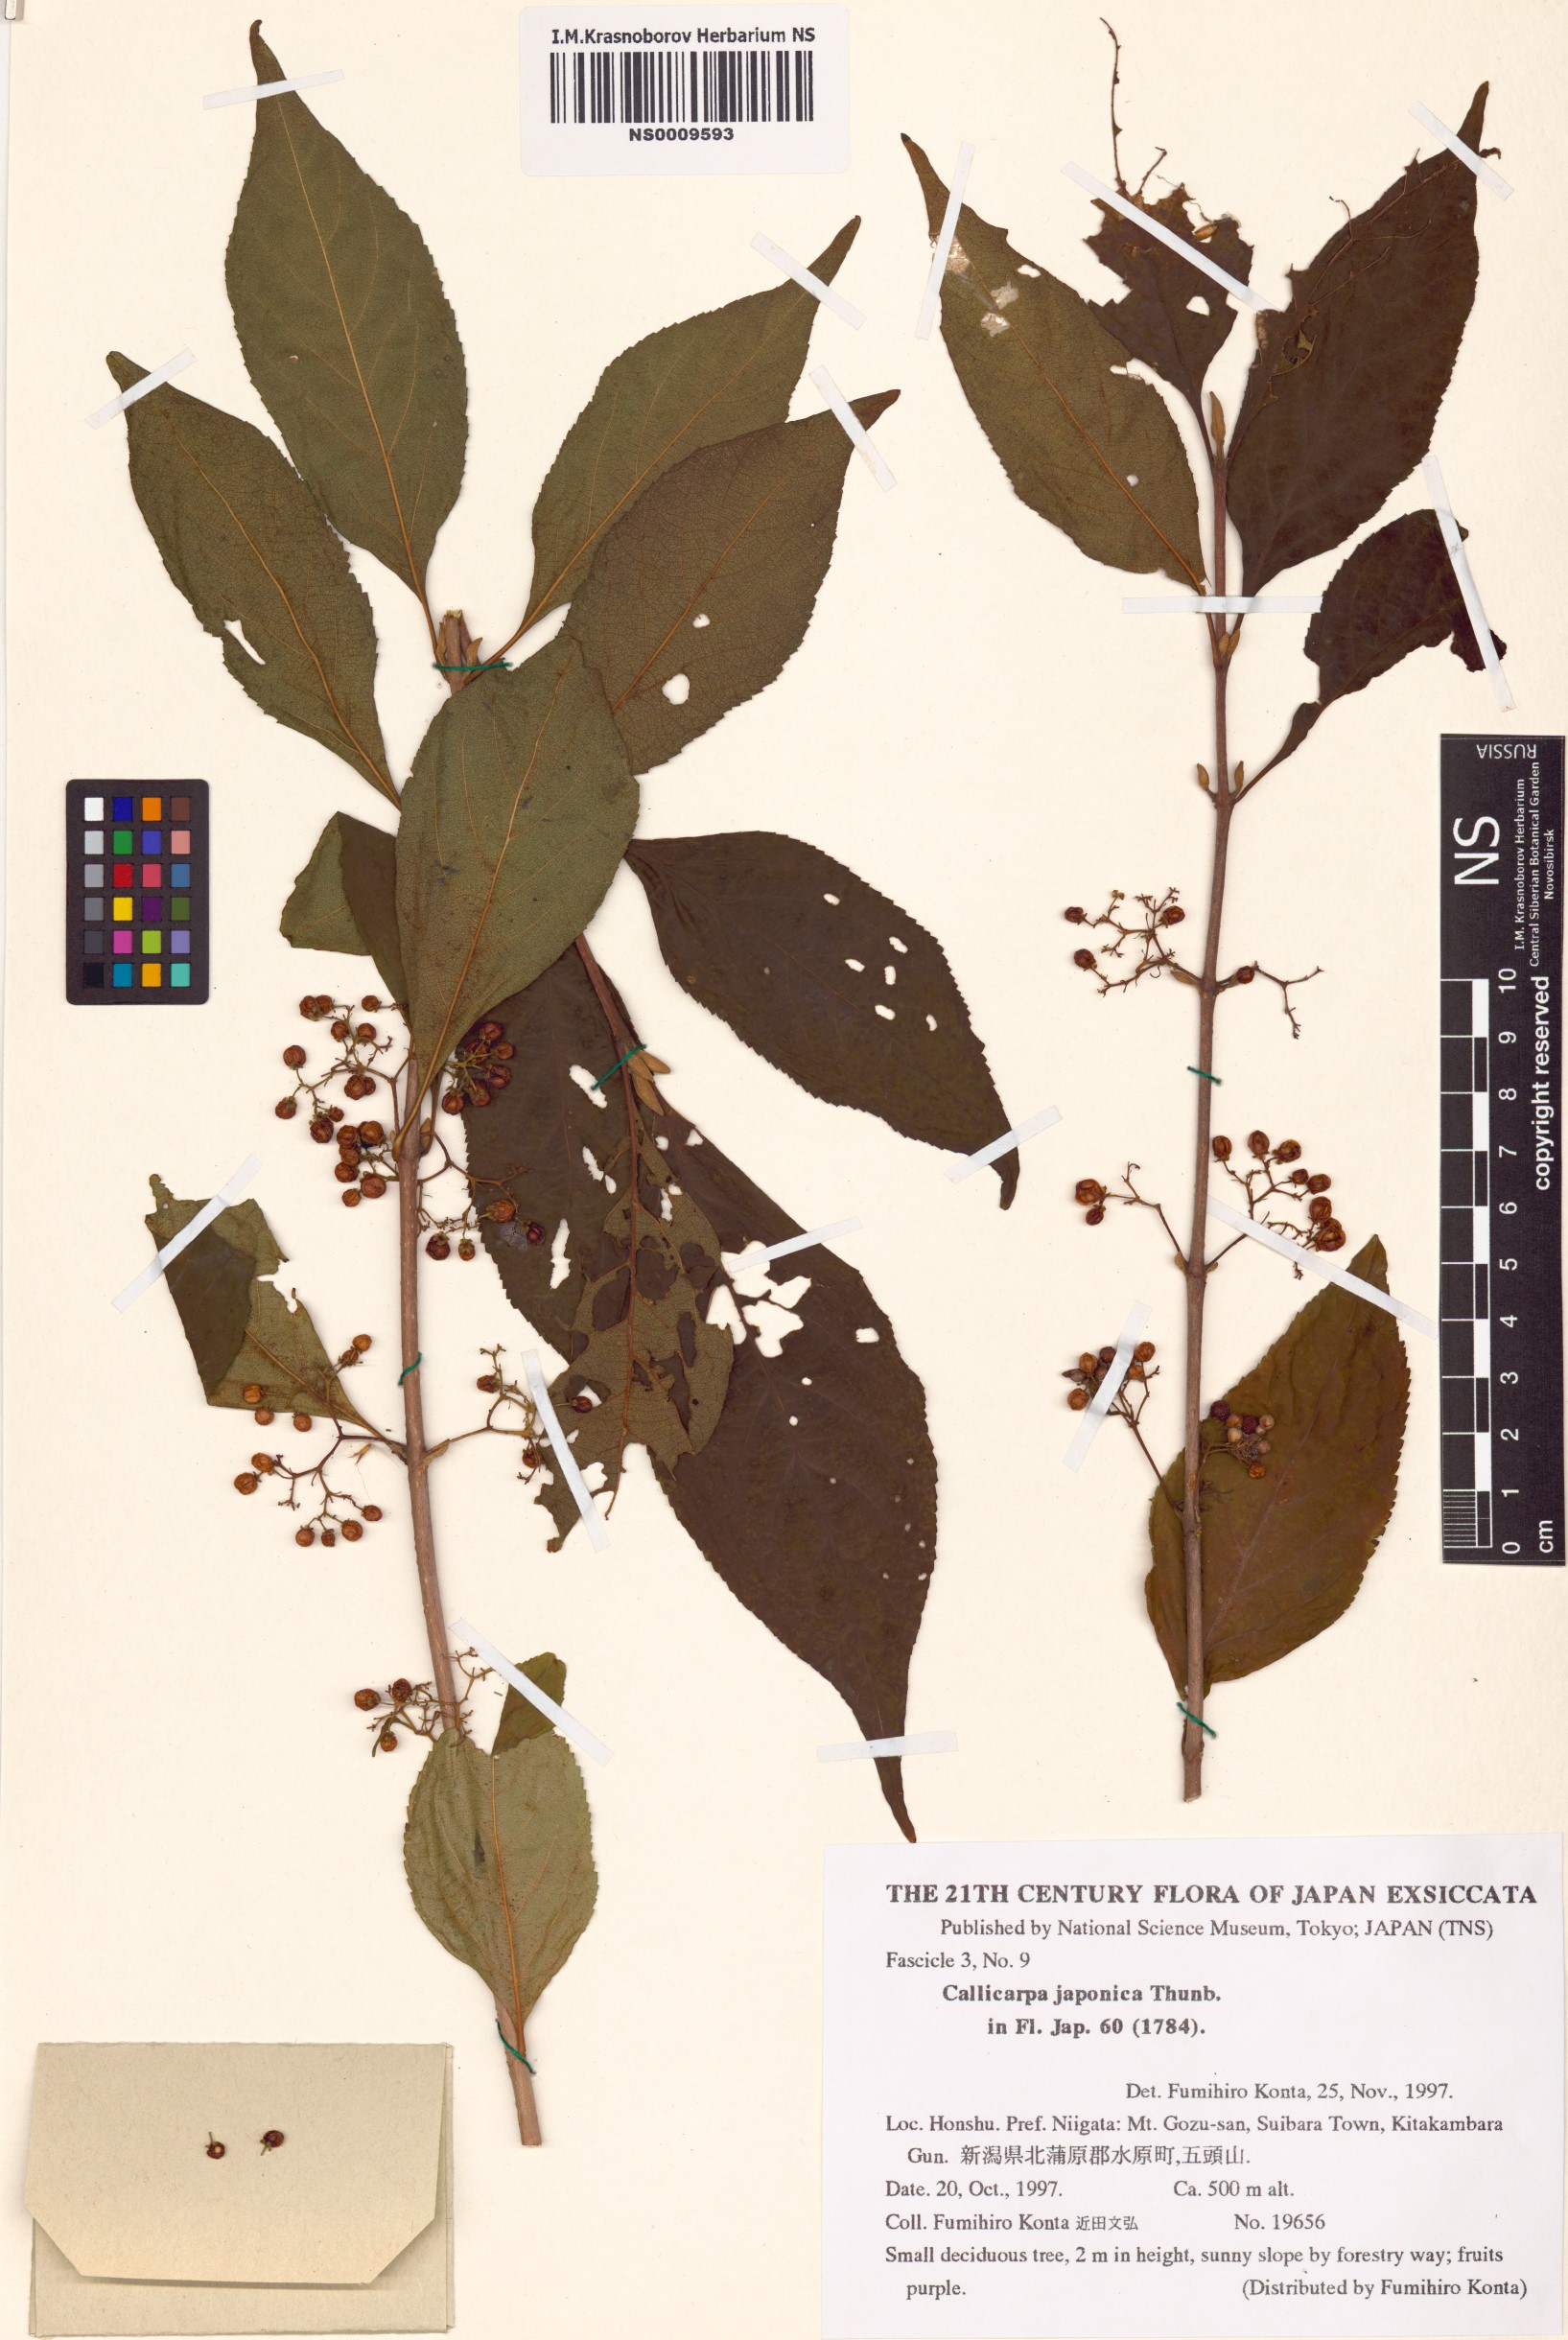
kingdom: Plantae
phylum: Tracheophyta
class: Magnoliopsida
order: Lamiales
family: Lamiaceae
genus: Callicarpa
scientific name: Callicarpa japonica
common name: Japanese beauty-berry
